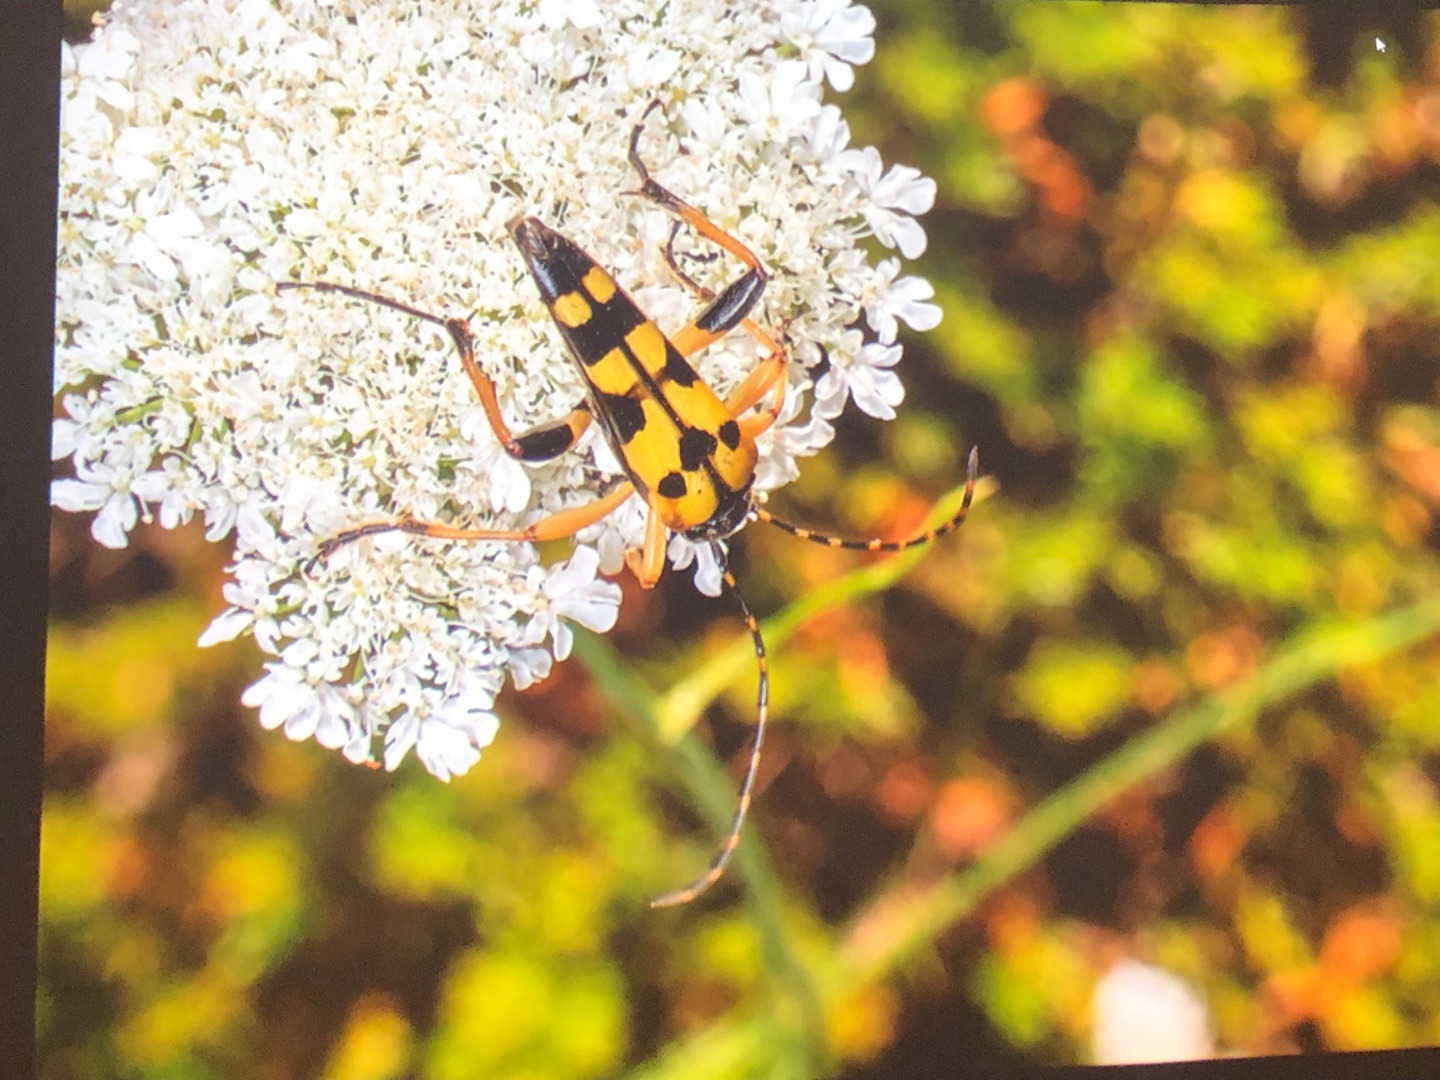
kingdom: Animalia
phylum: Arthropoda
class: Insecta
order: Coleoptera
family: Cerambycidae
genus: Rutpela
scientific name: Rutpela maculata
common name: Sydlig blomsterbuk
